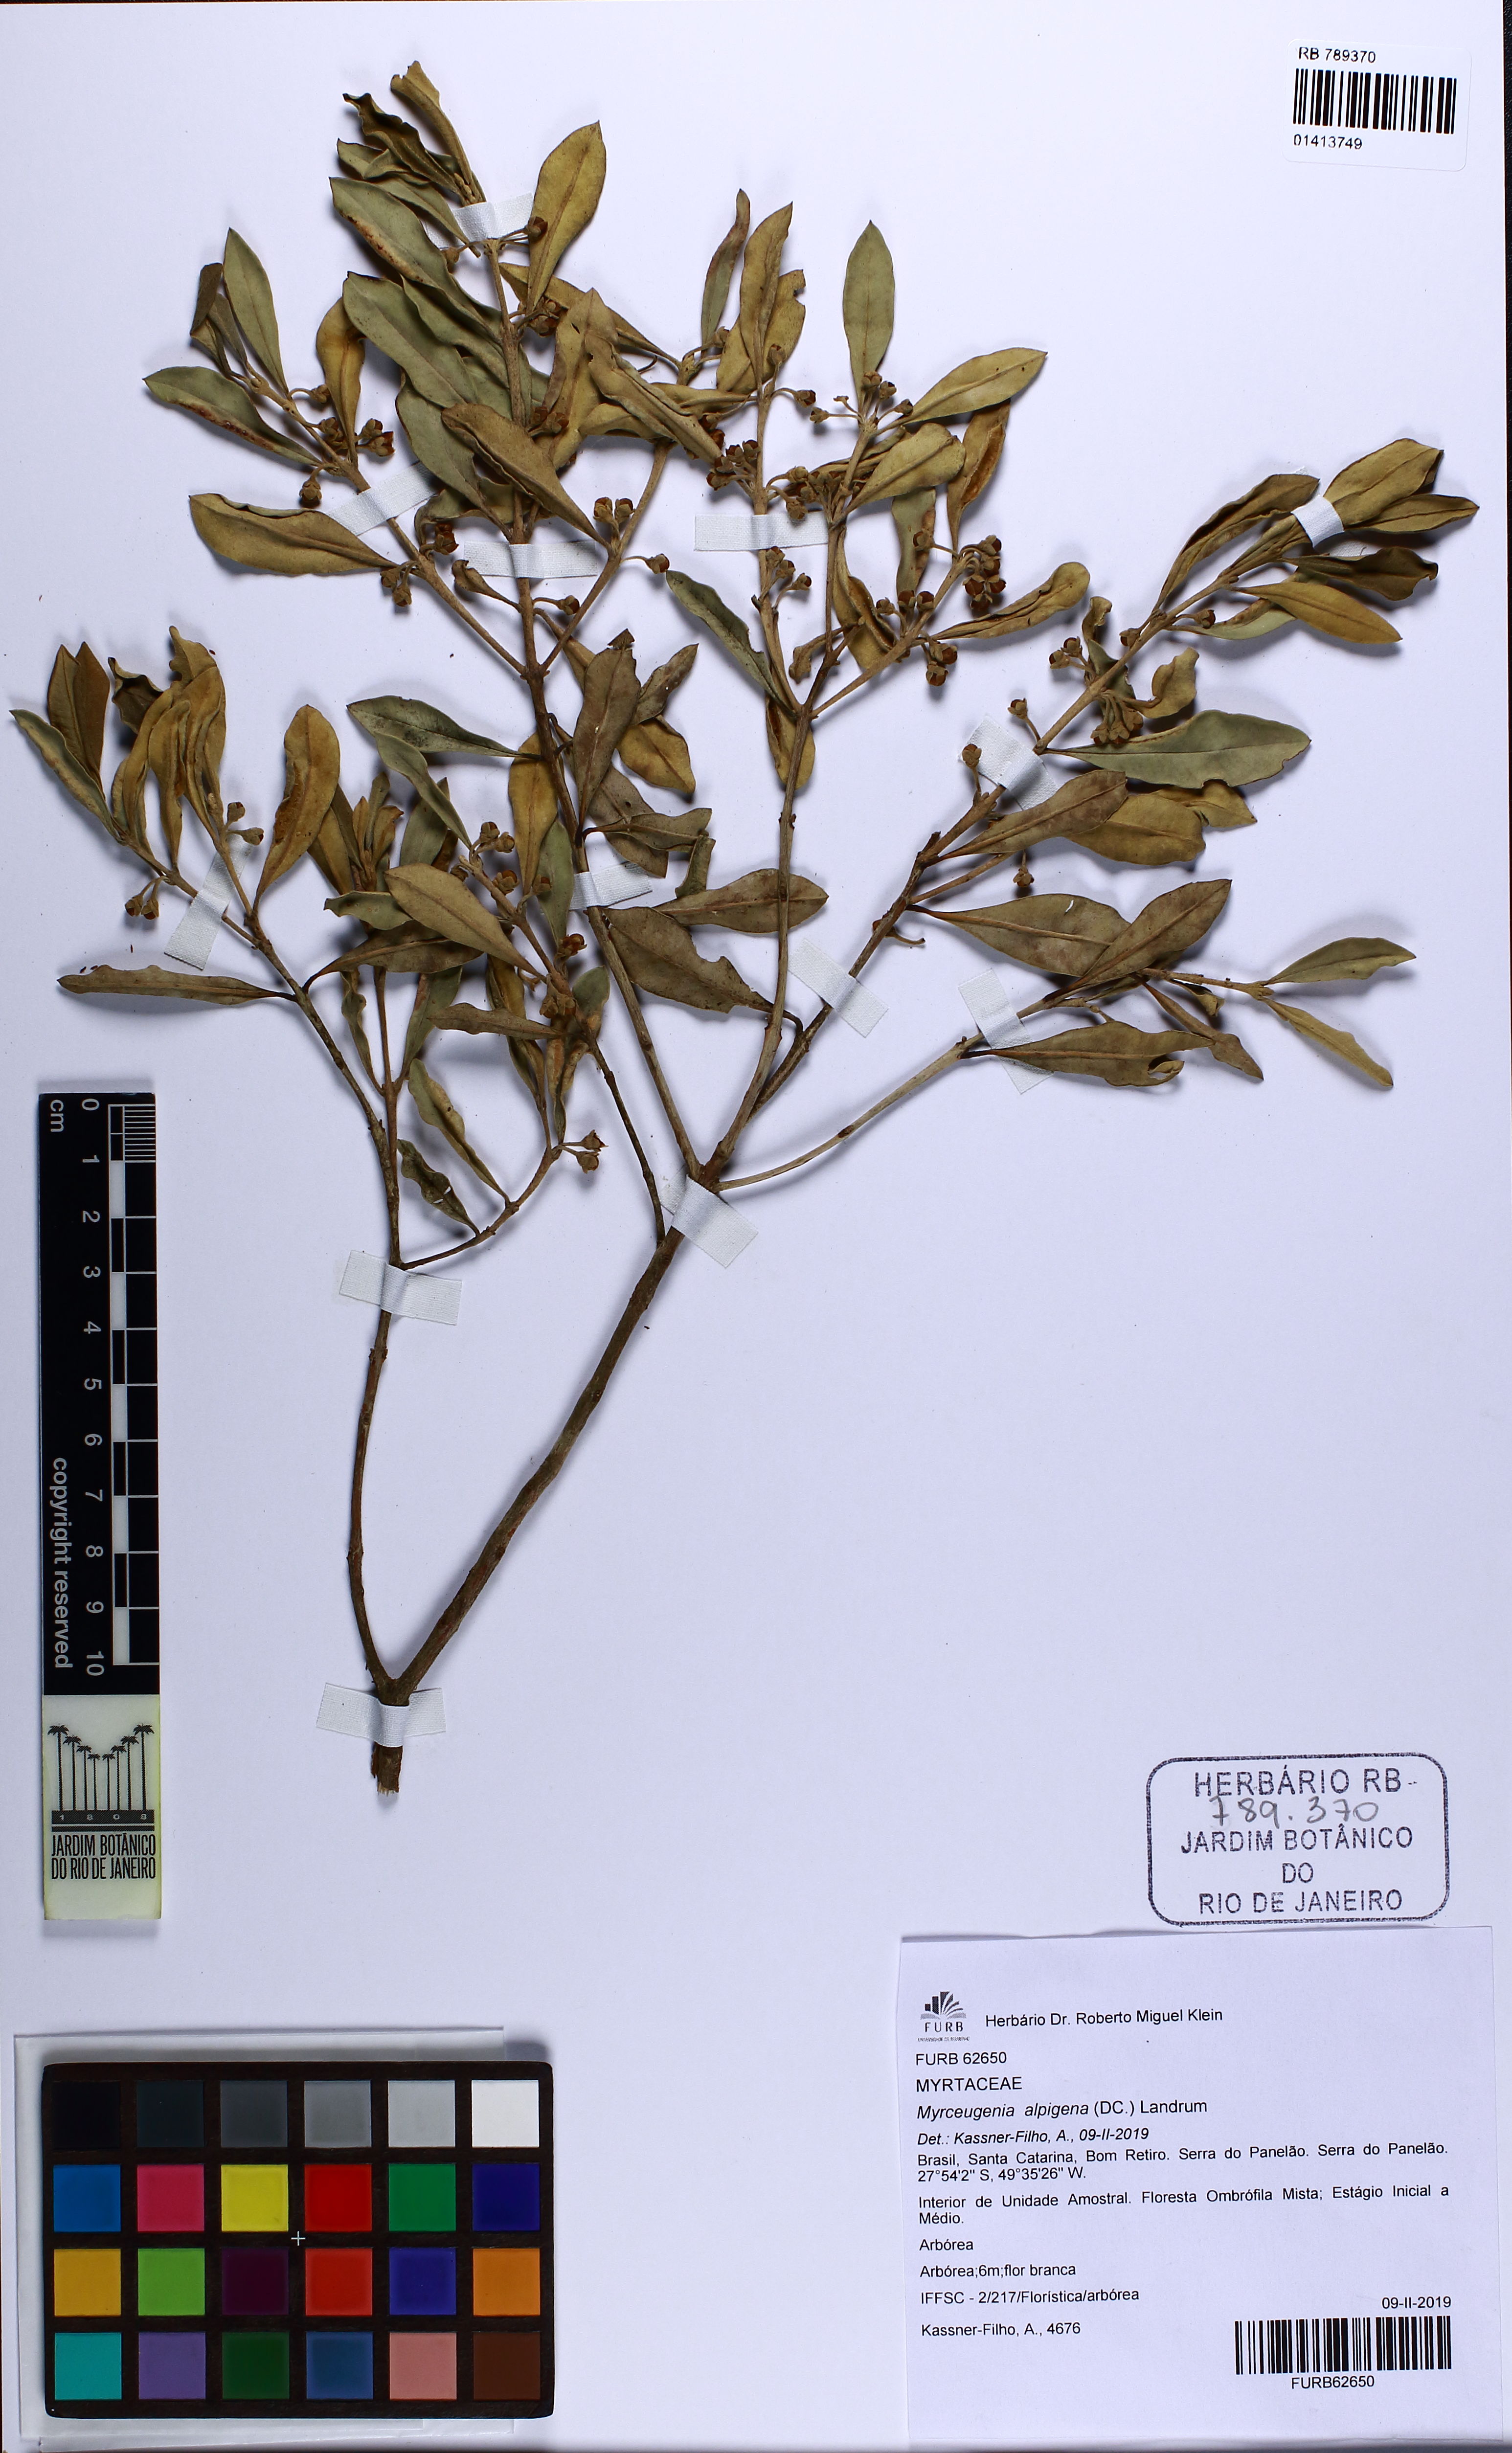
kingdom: Plantae
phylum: Tracheophyta
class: Magnoliopsida
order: Myrtales
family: Myrtaceae
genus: Myrceugenia
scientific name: Myrceugenia alpigena
